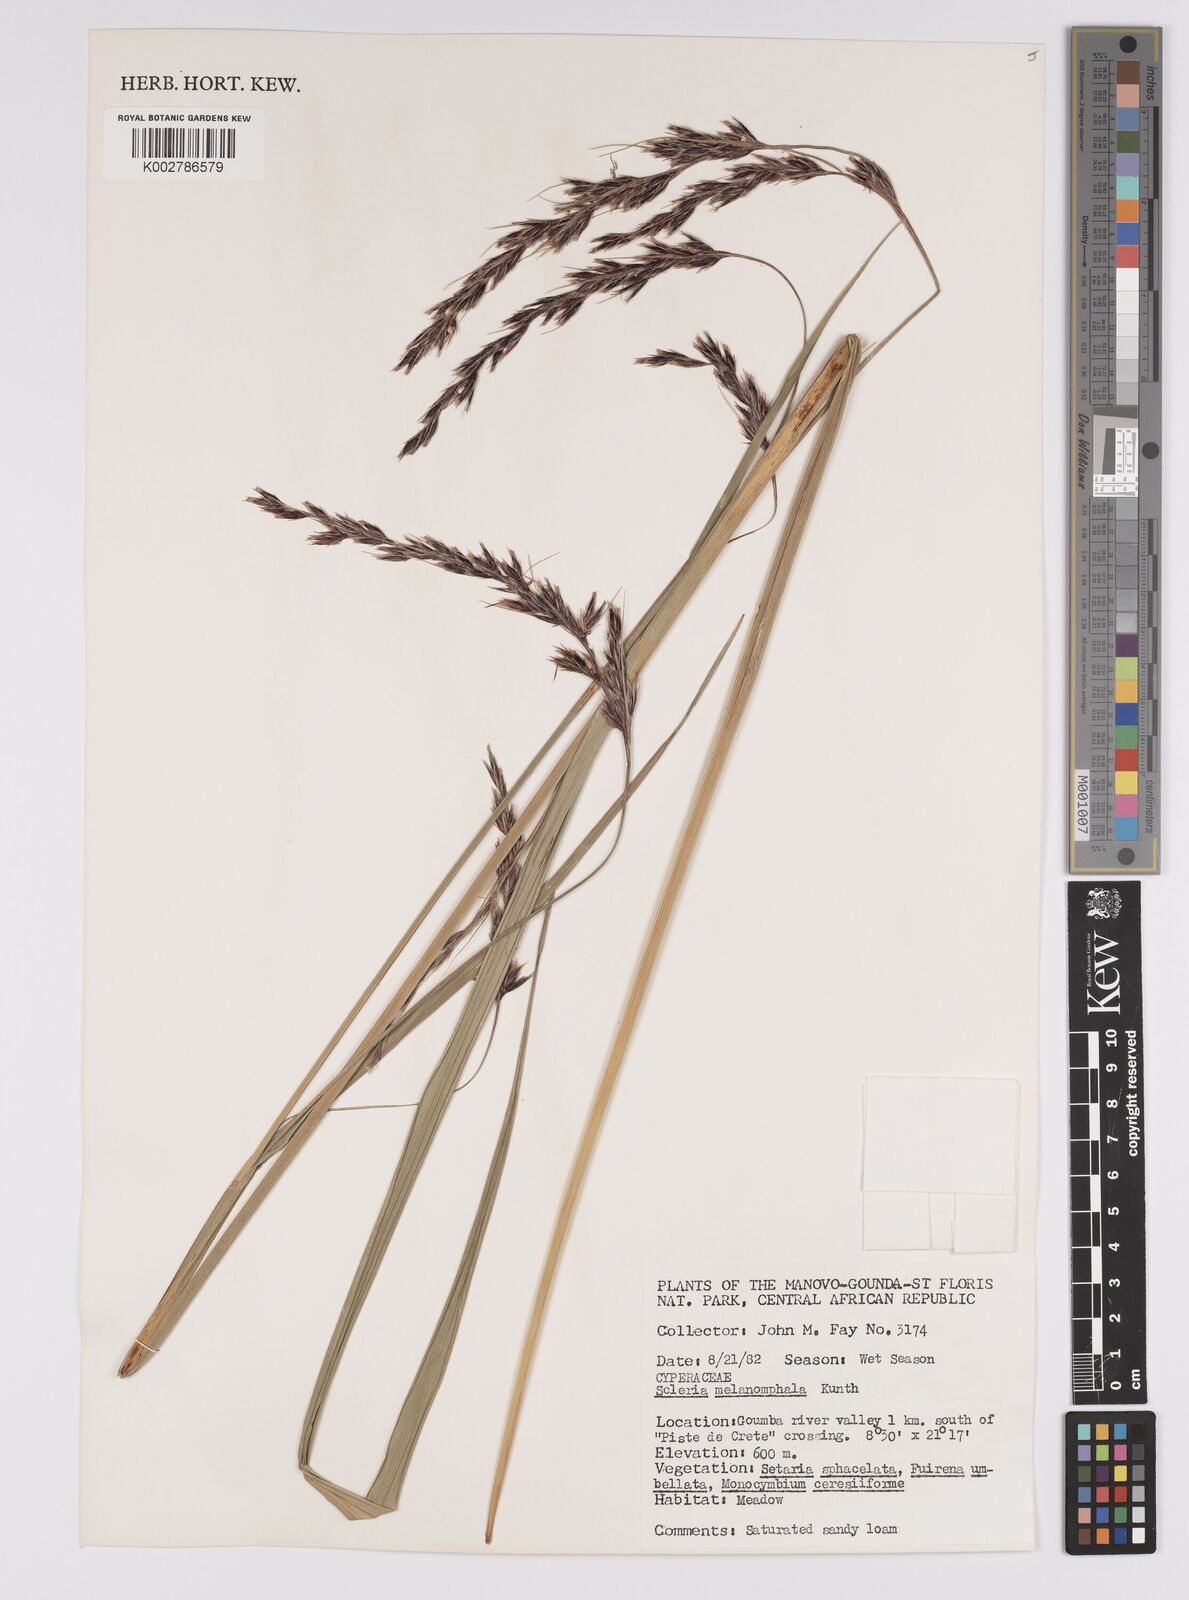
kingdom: Plantae
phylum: Tracheophyta
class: Liliopsida
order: Poales
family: Cyperaceae
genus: Scleria
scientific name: Scleria melanomphala
